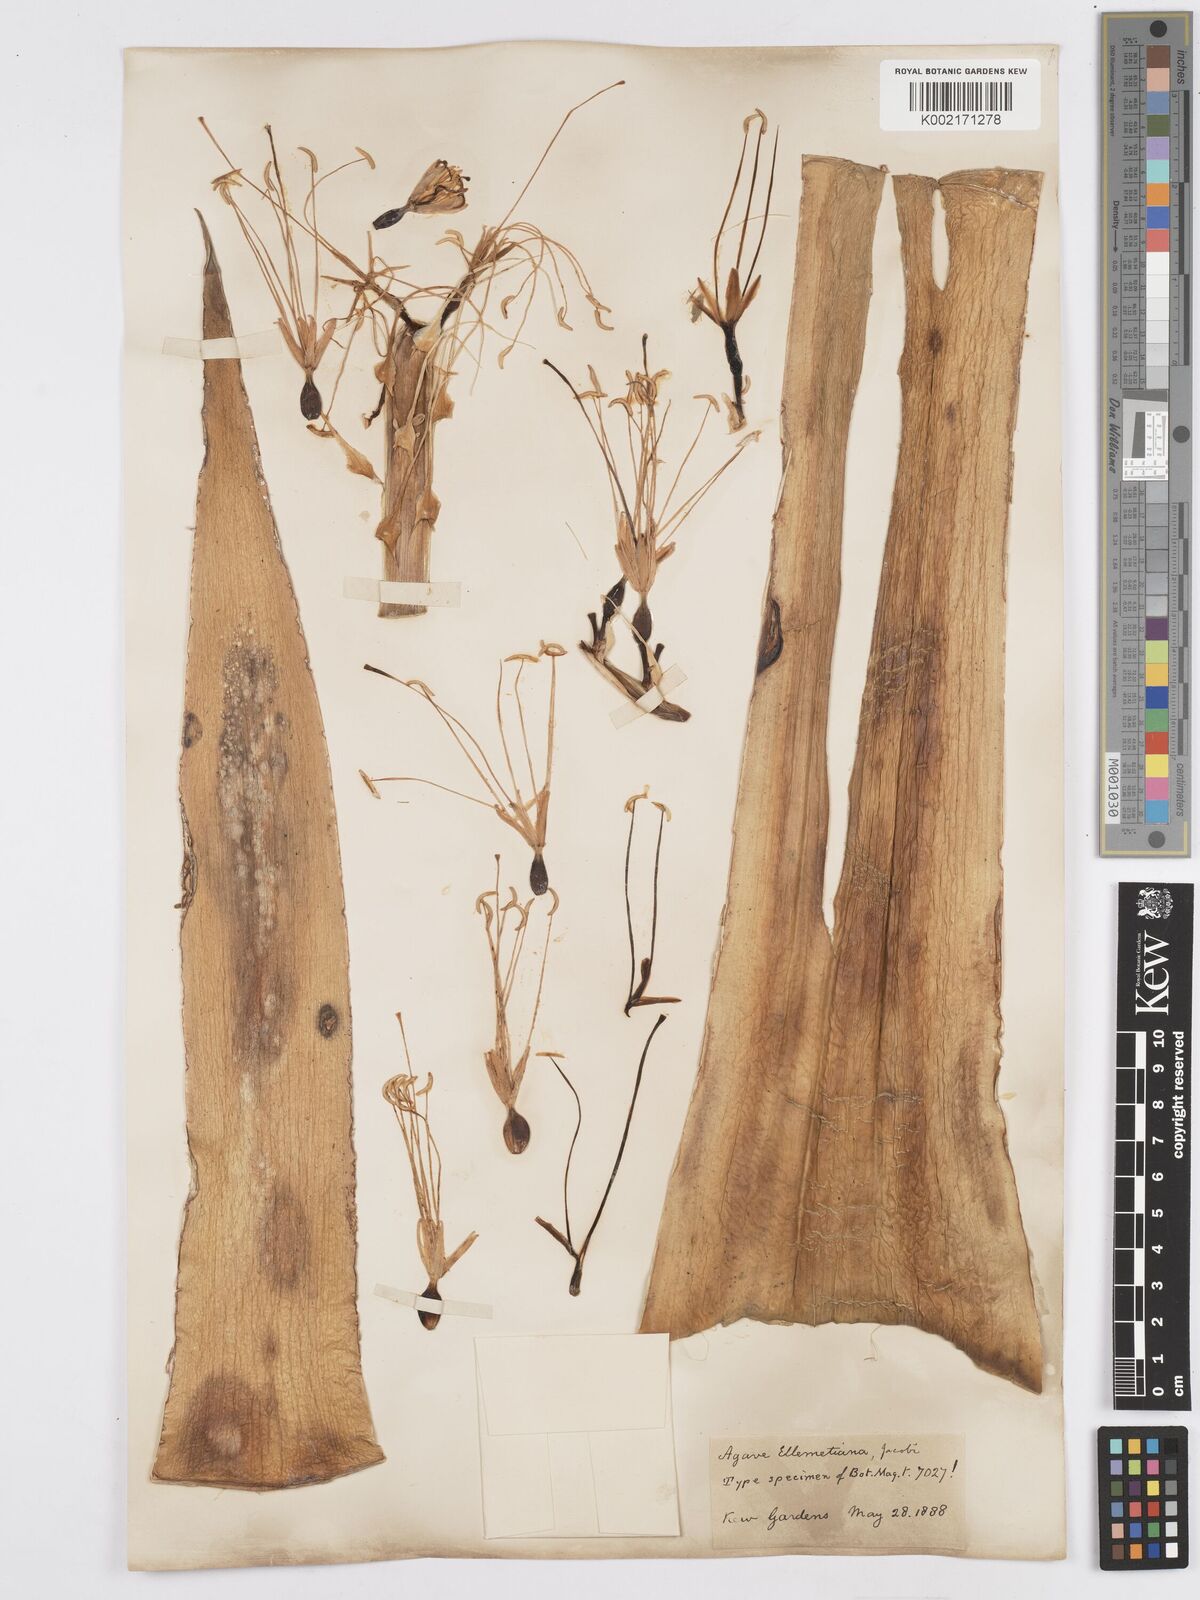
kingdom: Plantae
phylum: Tracheophyta
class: Liliopsida
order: Asparagales
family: Asparagaceae
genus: Agave
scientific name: Agave ellemeetiana
